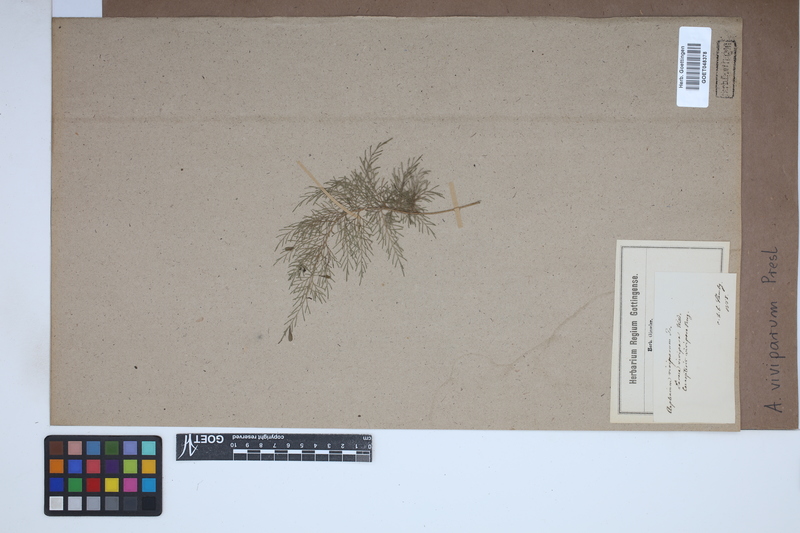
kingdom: Plantae
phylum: Tracheophyta
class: Polypodiopsida
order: Polypodiales
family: Aspleniaceae
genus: Asplenium
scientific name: Asplenium daucifolium
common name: Mauritius spleenwort
